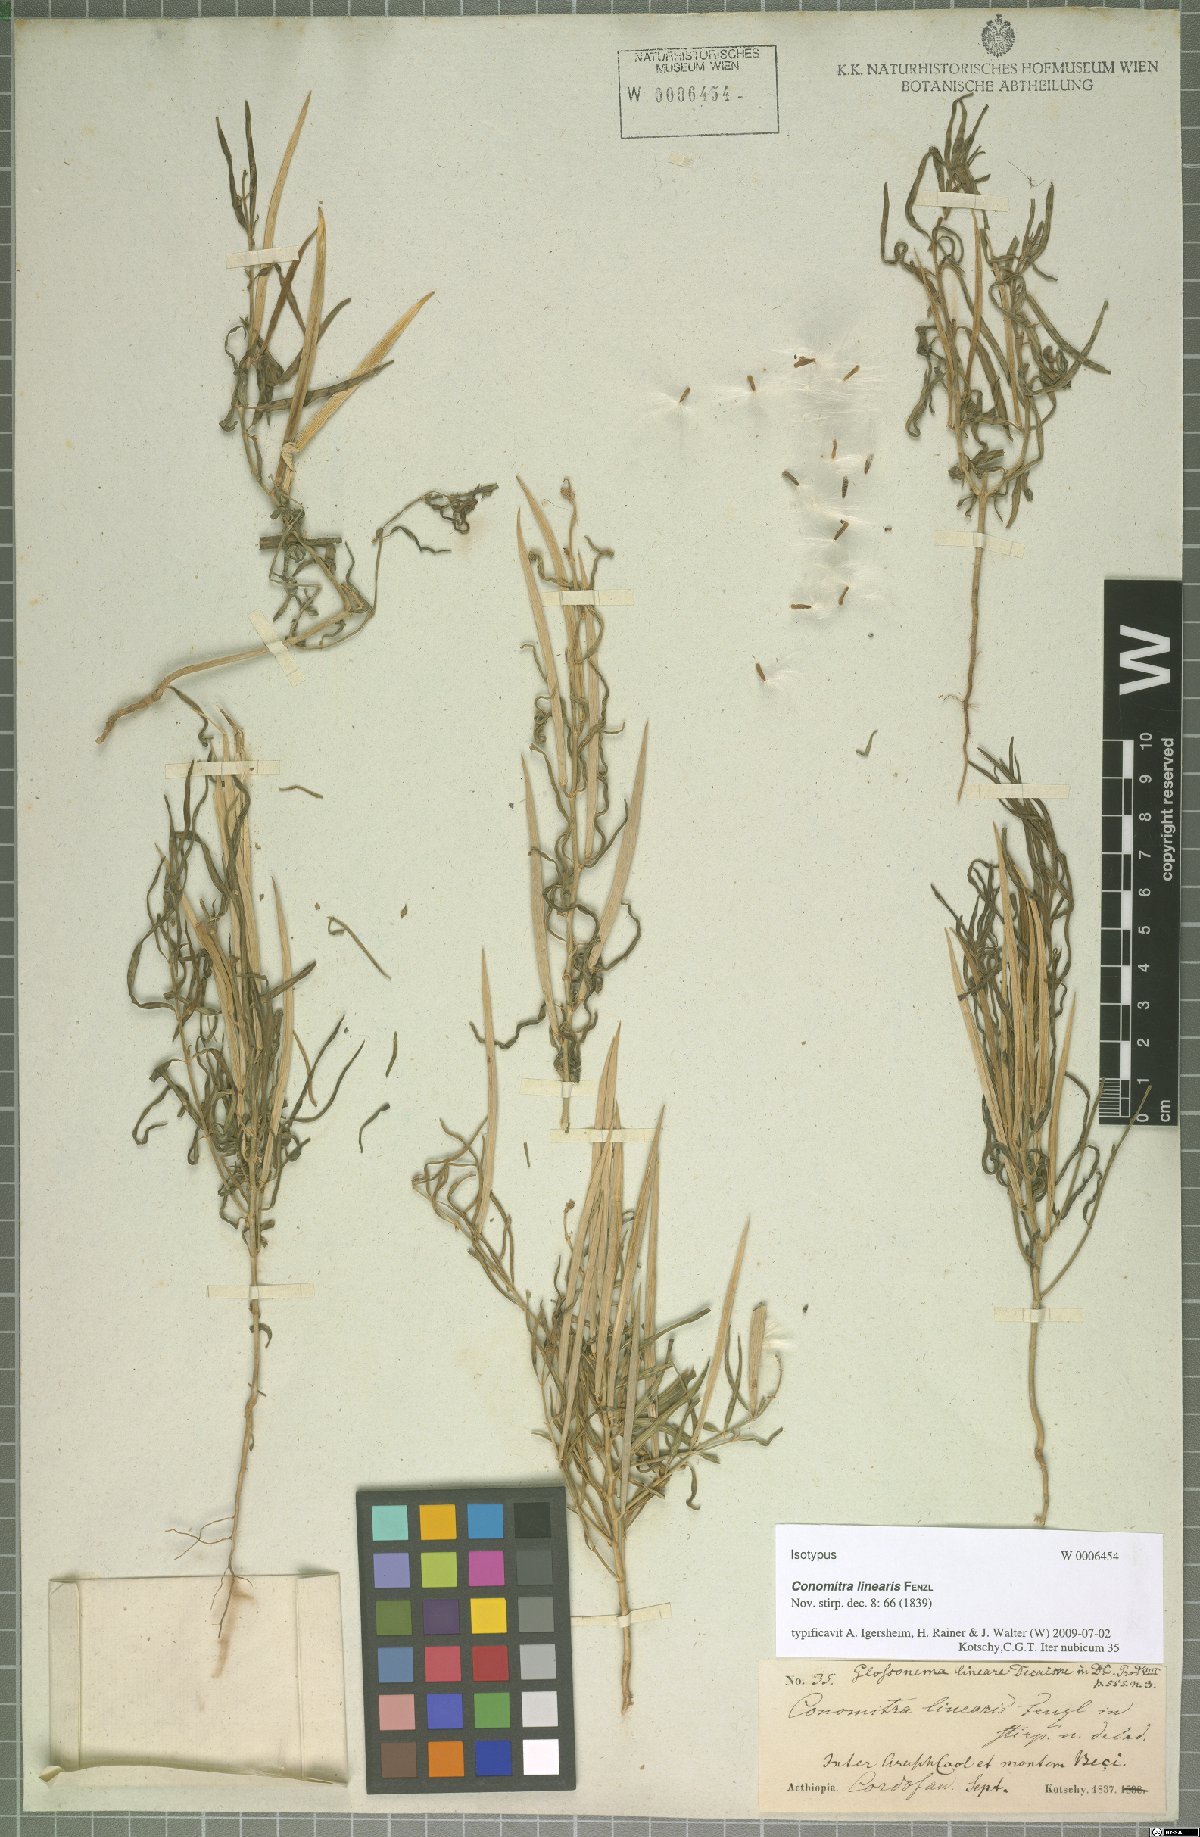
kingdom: Plantae
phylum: Tracheophyta
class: Magnoliopsida
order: Gentianales
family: Apocynaceae
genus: Conomitra
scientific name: Conomitra linearis
